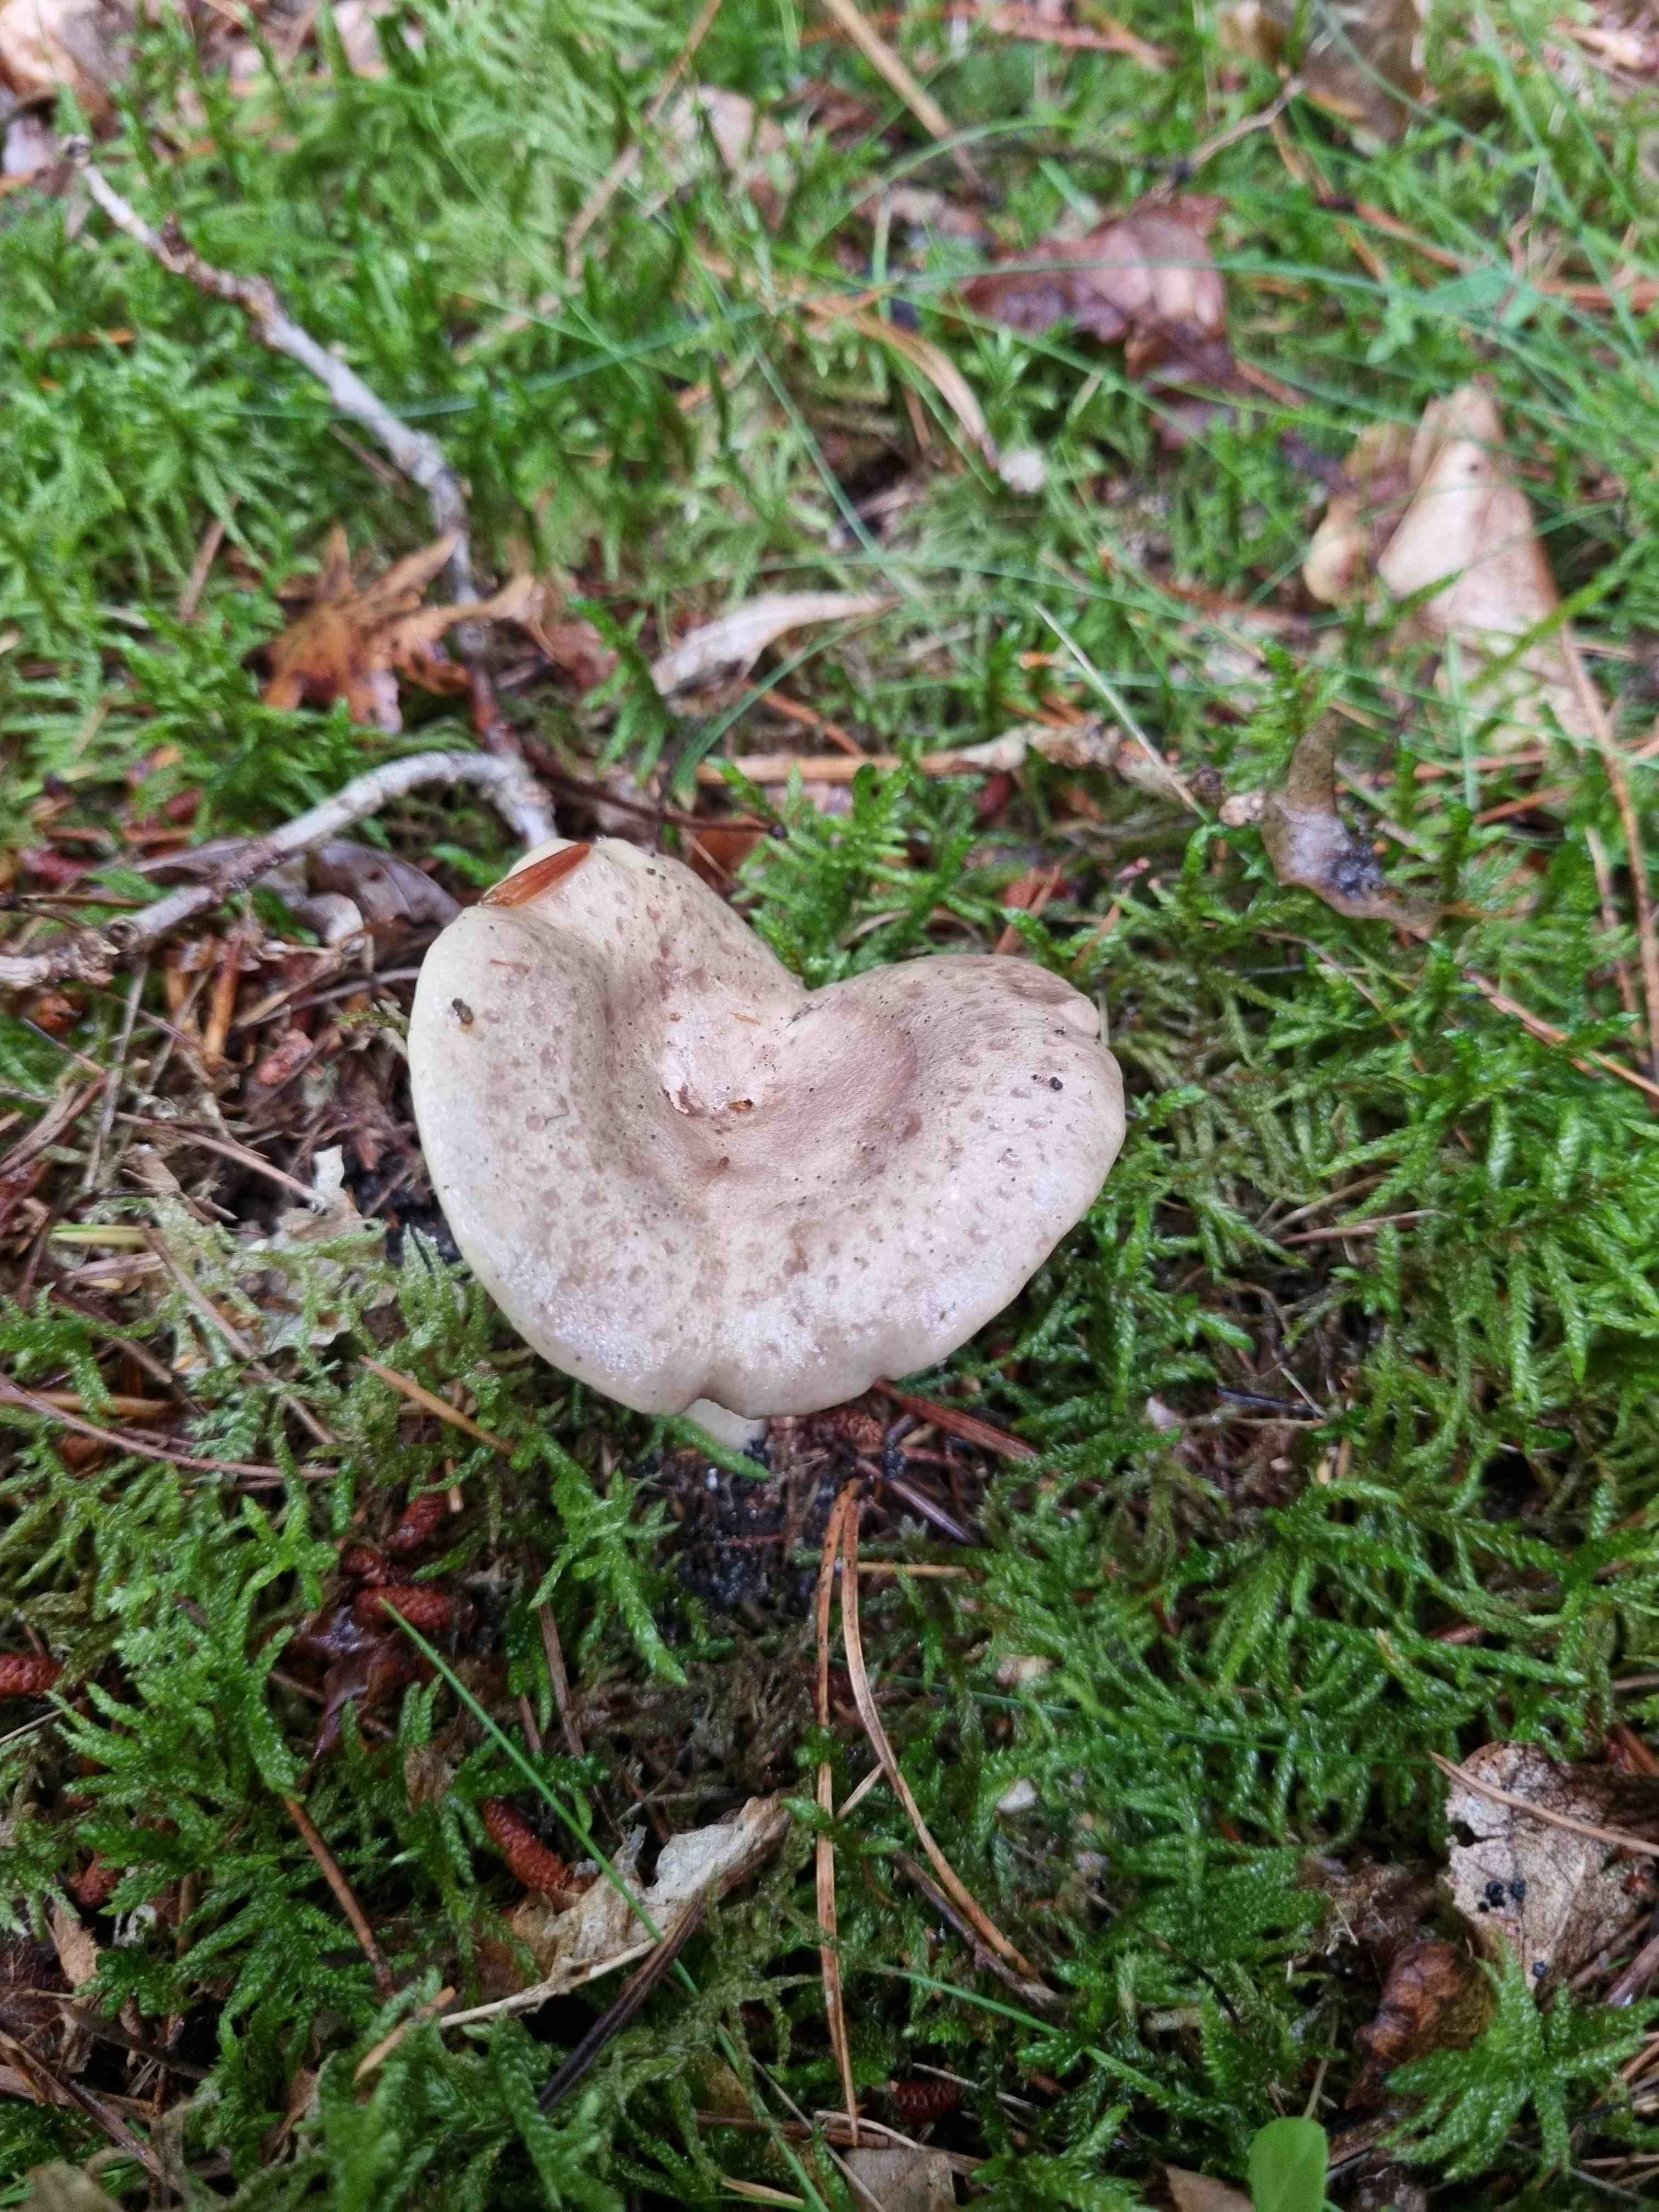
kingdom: Fungi
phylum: Basidiomycota
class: Agaricomycetes
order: Russulales
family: Russulaceae
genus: Lactarius
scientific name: Lactarius blennius
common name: dråbeplettet mælkehat
